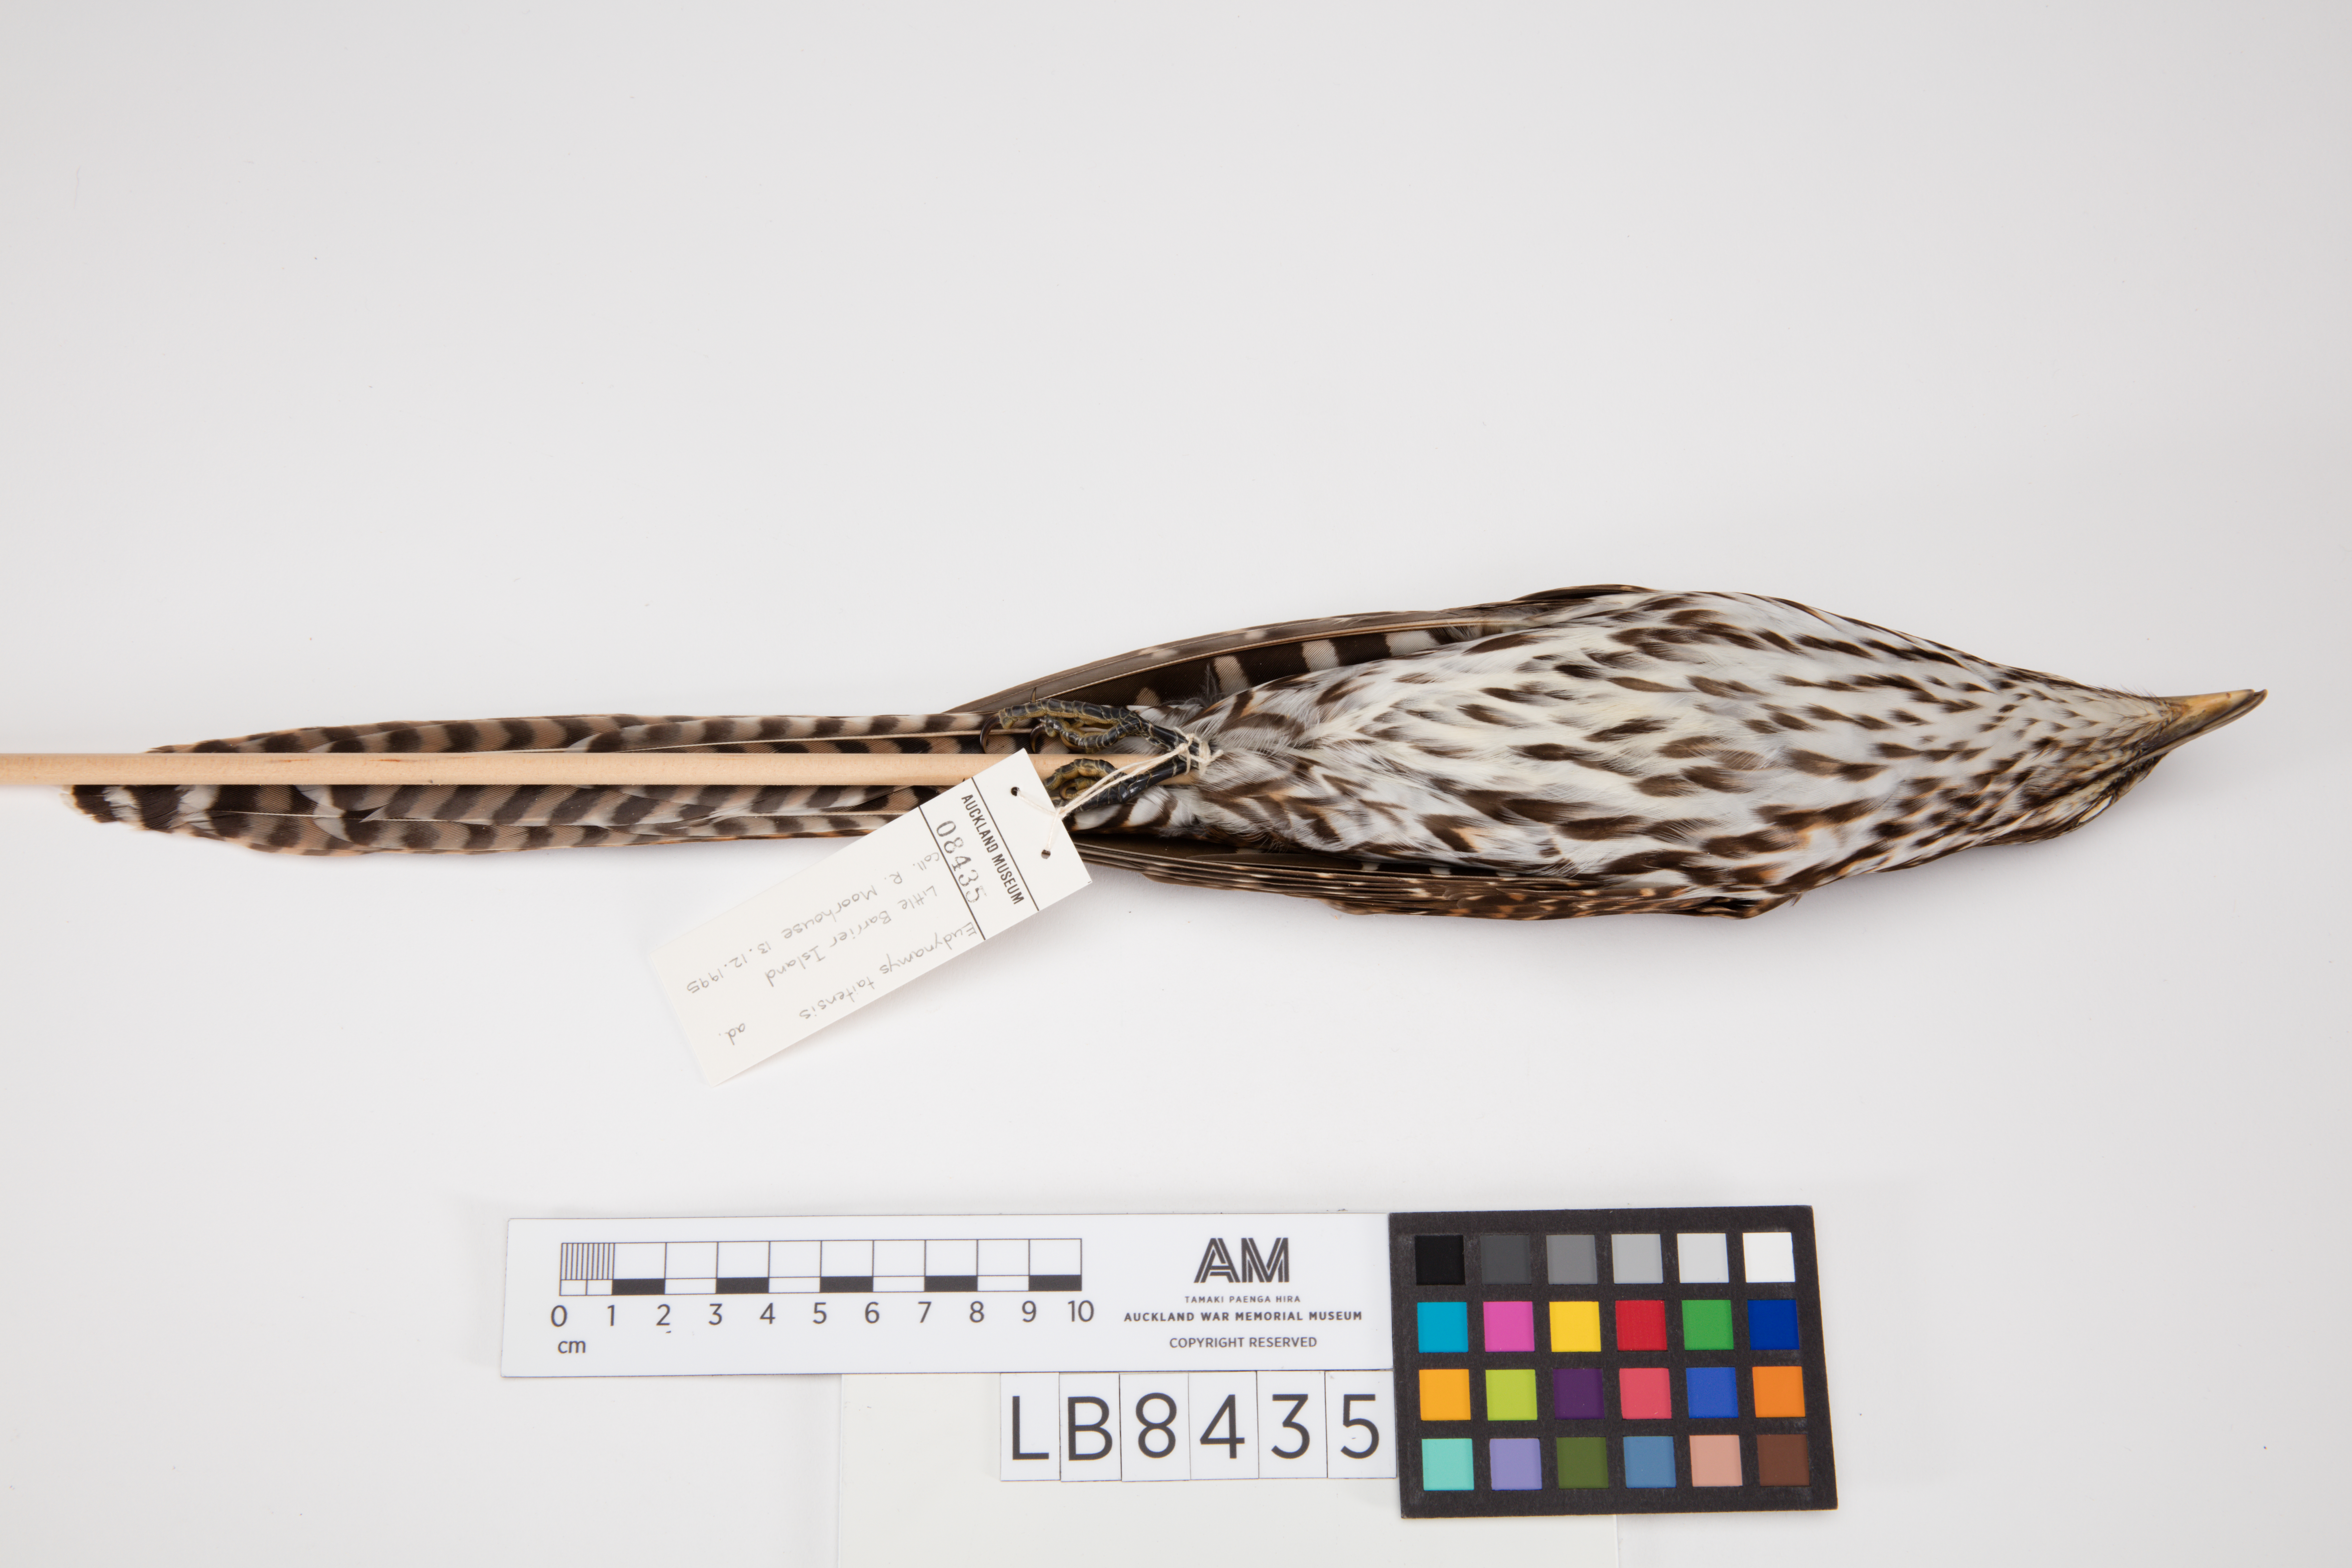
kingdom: Animalia
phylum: Chordata
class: Aves
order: Cuculiformes
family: Cuculidae
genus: Urodynamis
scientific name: Urodynamis taitensis
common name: Long-tailed koel
